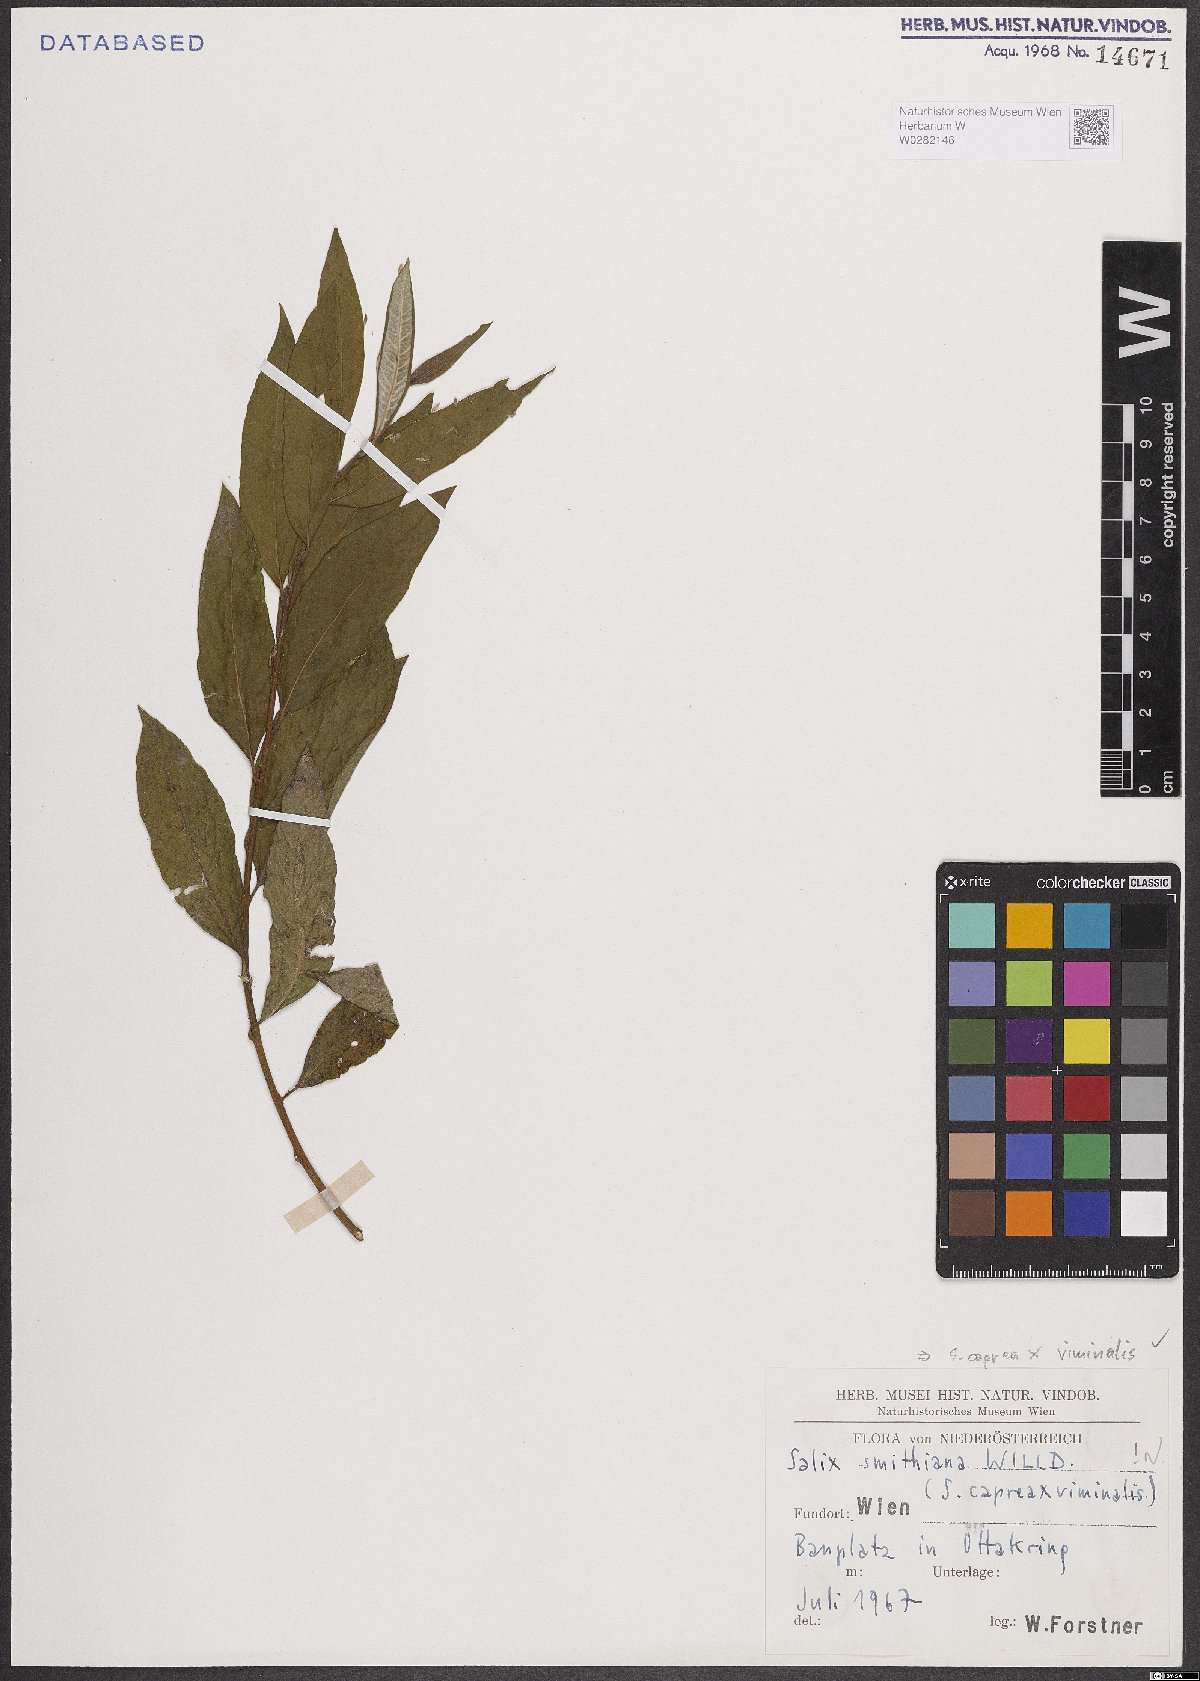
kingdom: Plantae
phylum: Tracheophyta
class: Magnoliopsida
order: Malpighiales
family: Salicaceae
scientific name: Salicaceae
